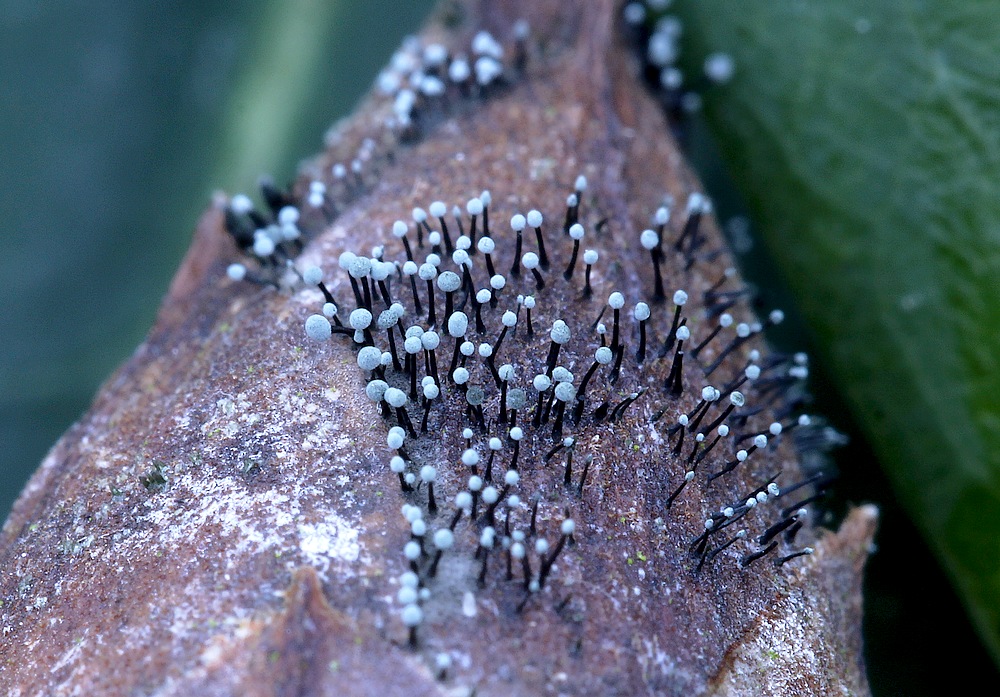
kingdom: Fungi
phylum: Ascomycota
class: Dothideomycetes
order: Pleosporales
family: Melanommataceae
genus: Seifertia
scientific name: Seifertia azaleae
